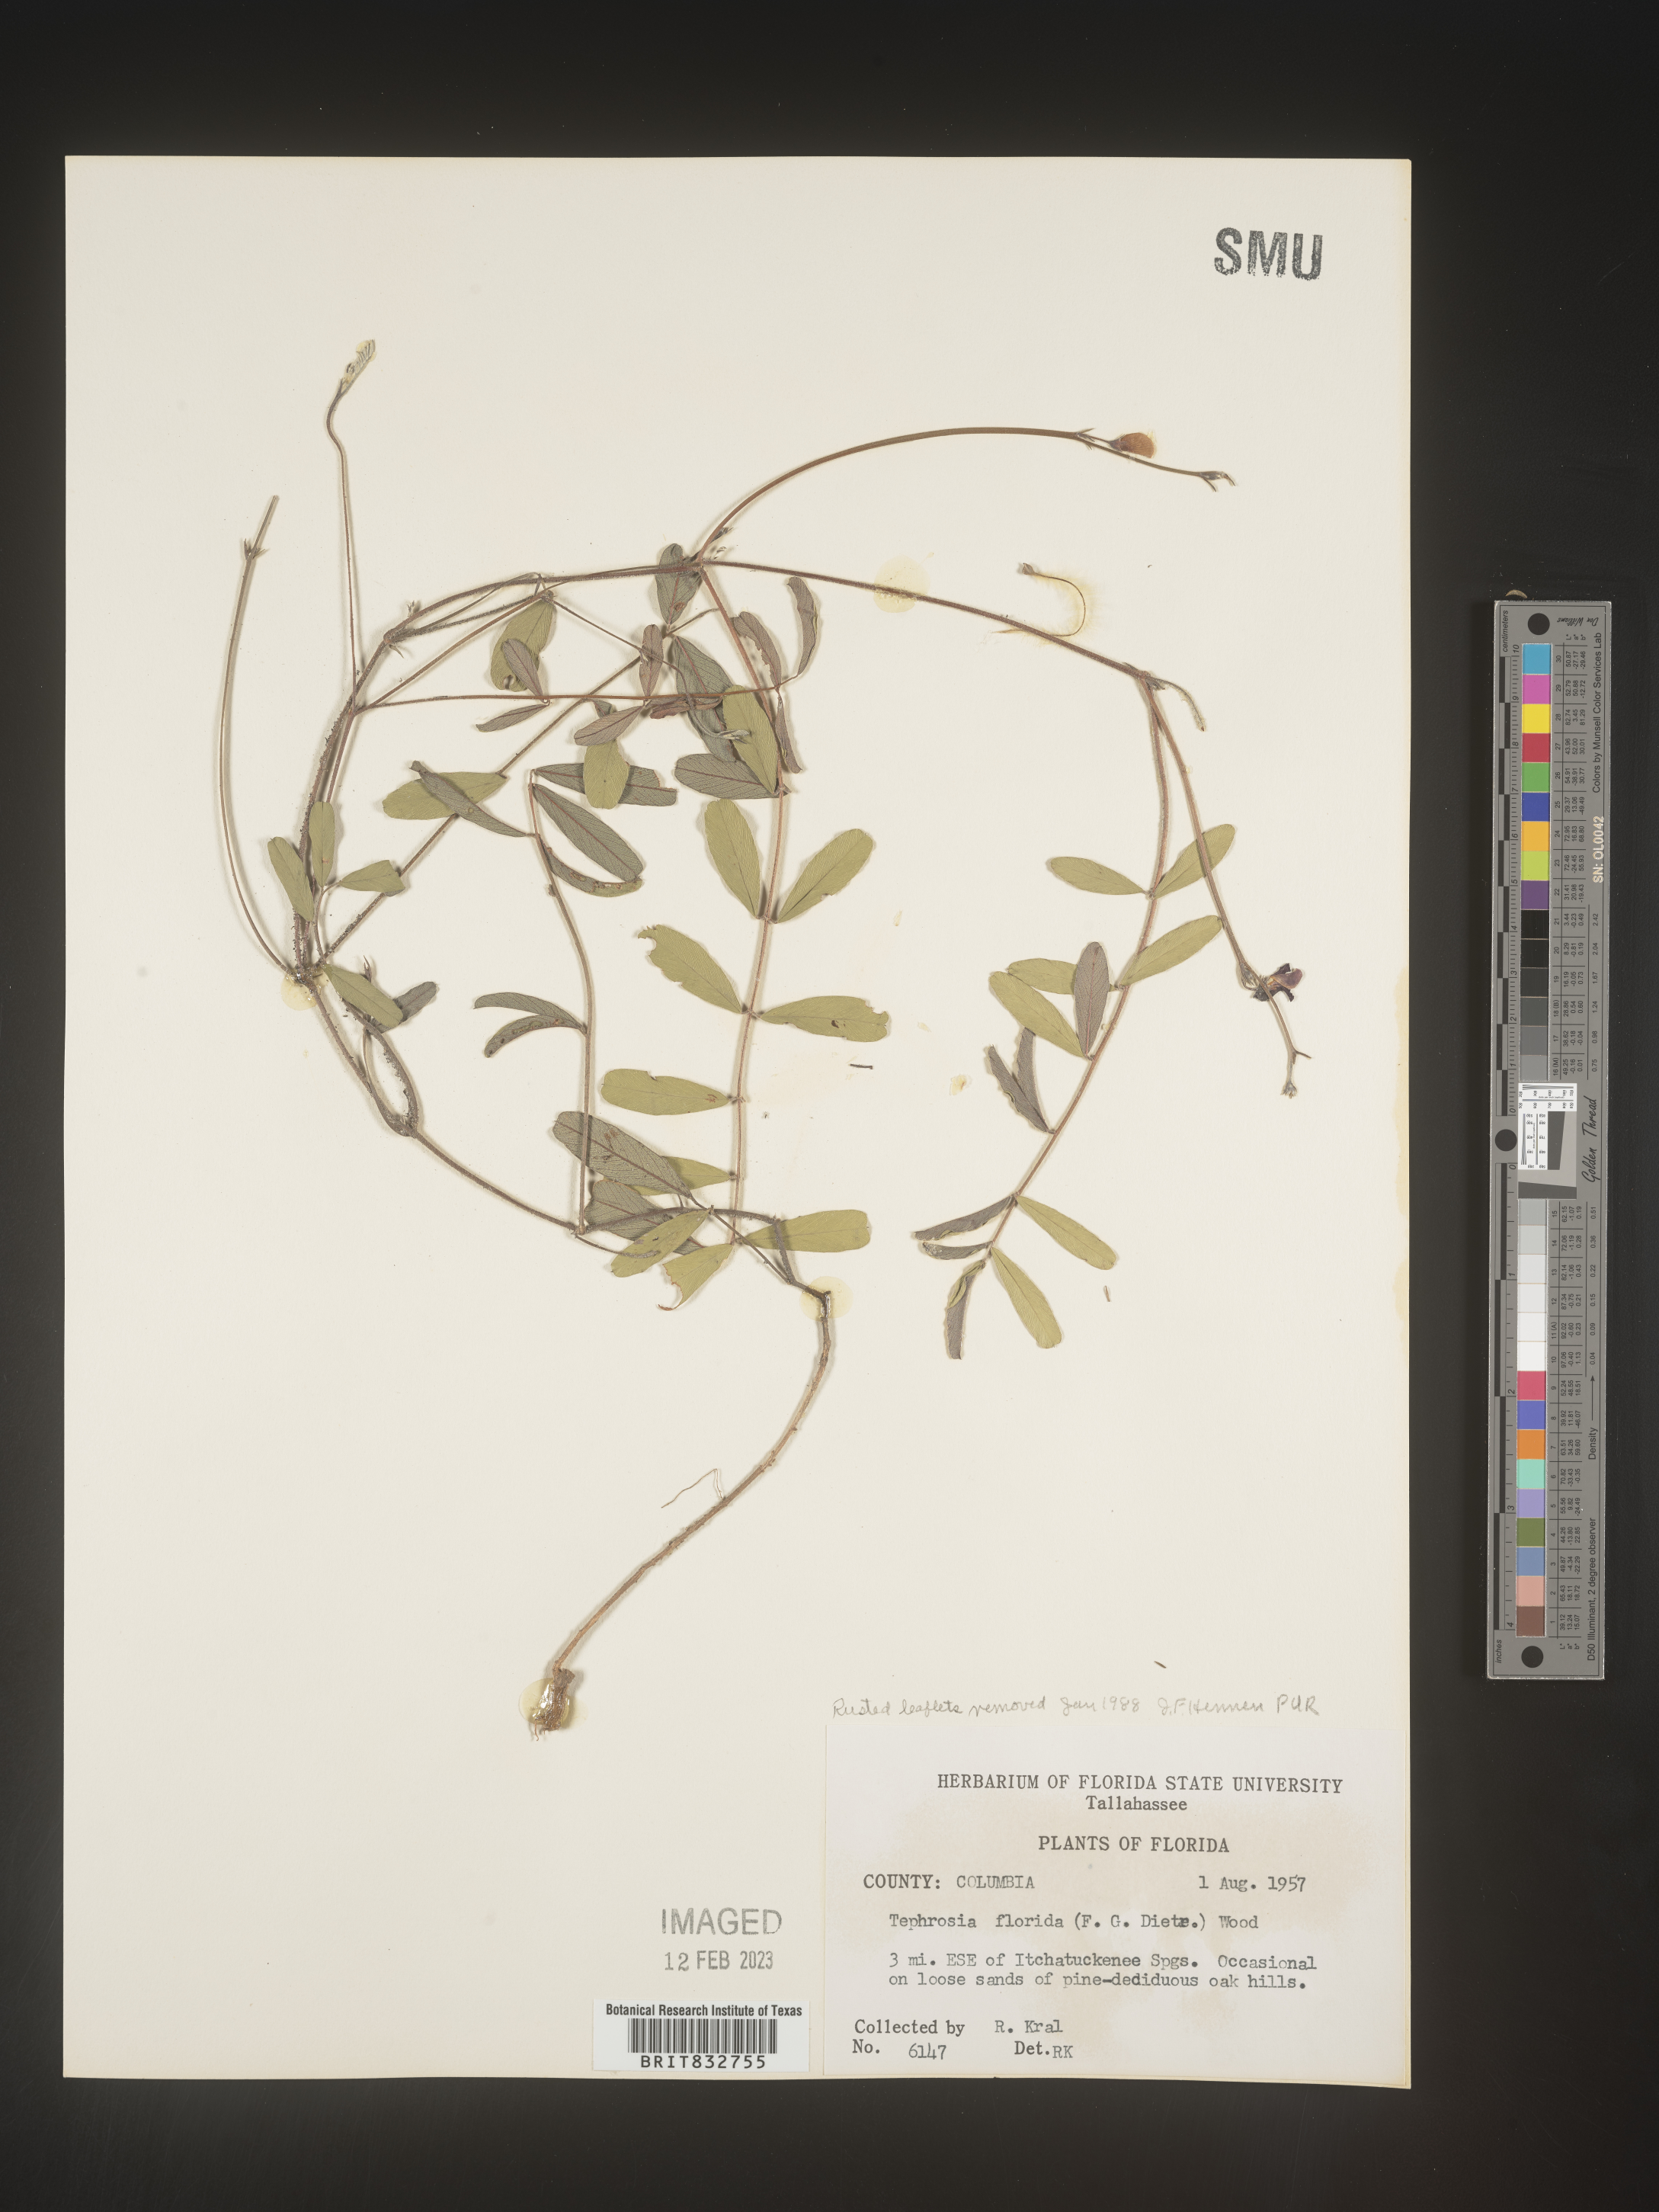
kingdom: Plantae
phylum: Tracheophyta
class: Magnoliopsida
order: Fabales
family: Fabaceae
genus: Tephrosia
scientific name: Tephrosia florida
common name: Florida hoary-pea
